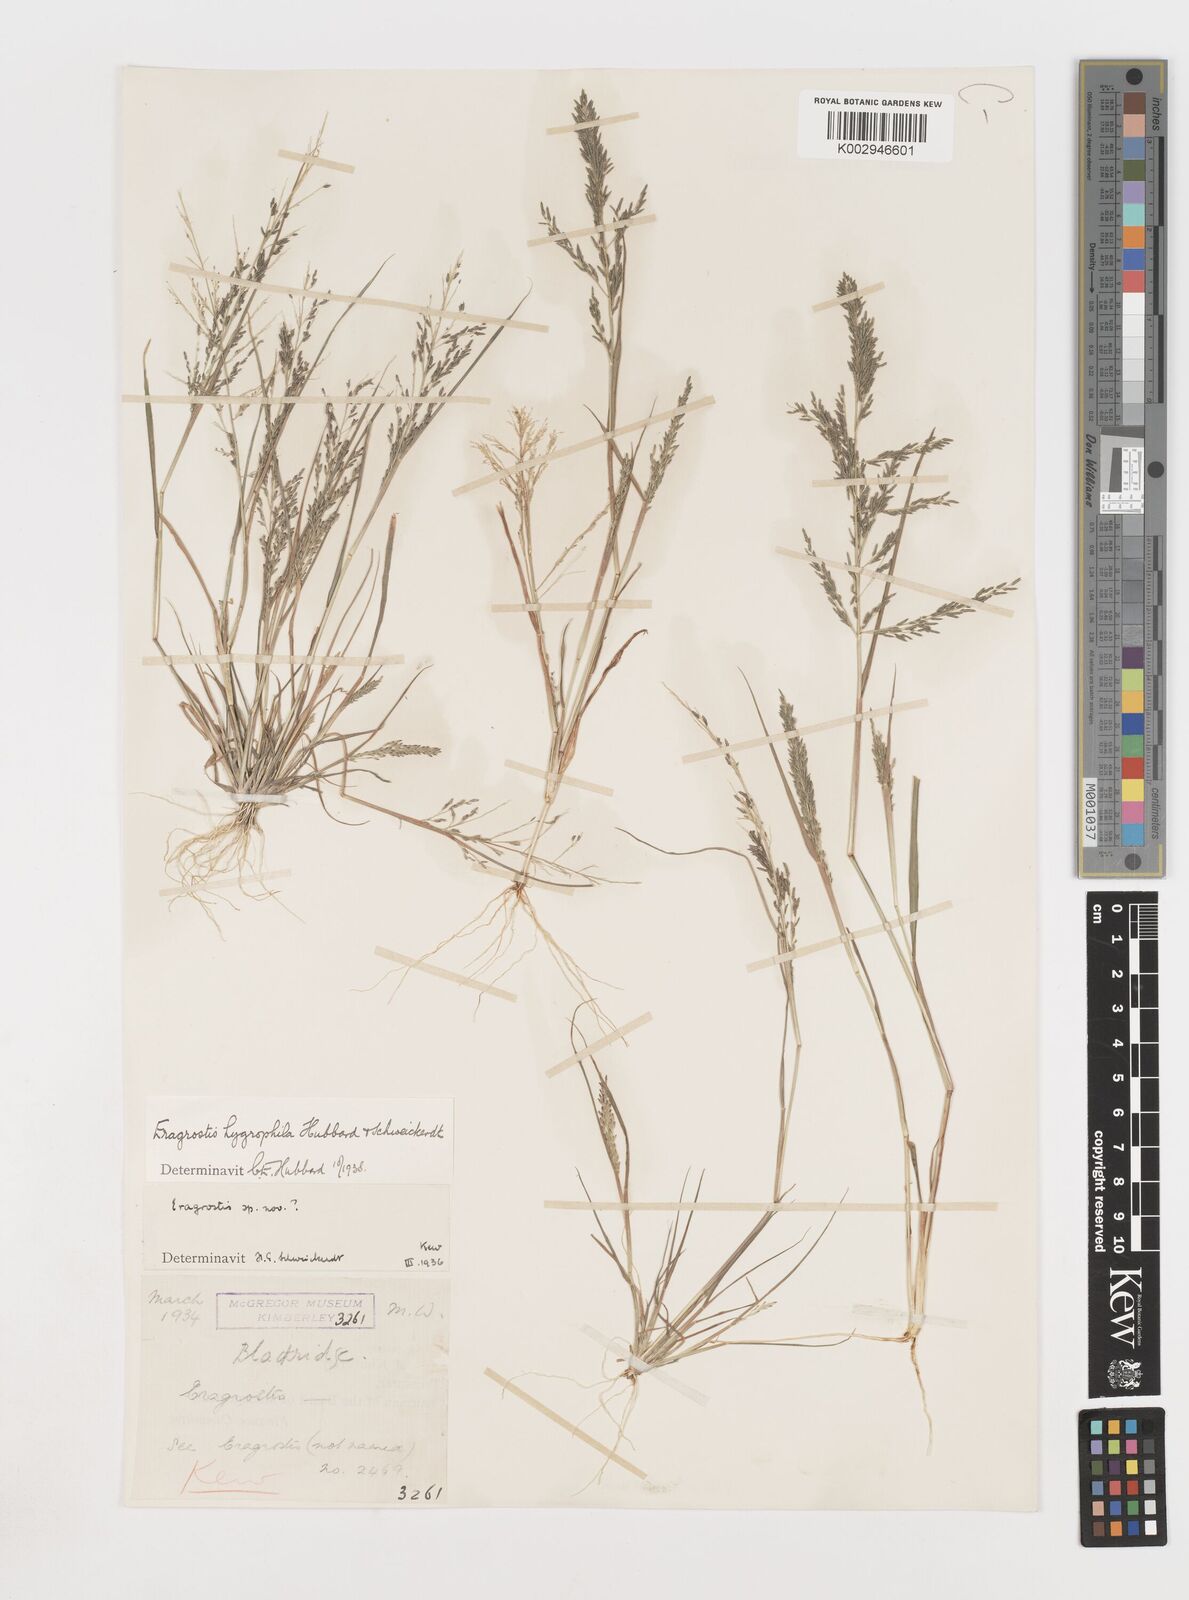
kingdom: Plantae
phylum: Tracheophyta
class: Liliopsida
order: Poales
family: Poaceae
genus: Eragrostis
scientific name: Eragrostis homomalla
